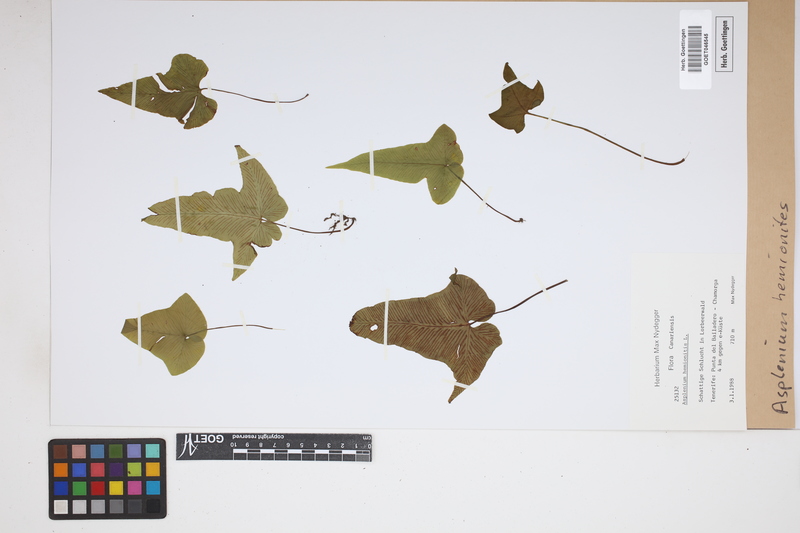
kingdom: Plantae
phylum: Tracheophyta
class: Polypodiopsida
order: Polypodiales
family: Aspleniaceae
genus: Asplenium
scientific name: Asplenium hemionitis
